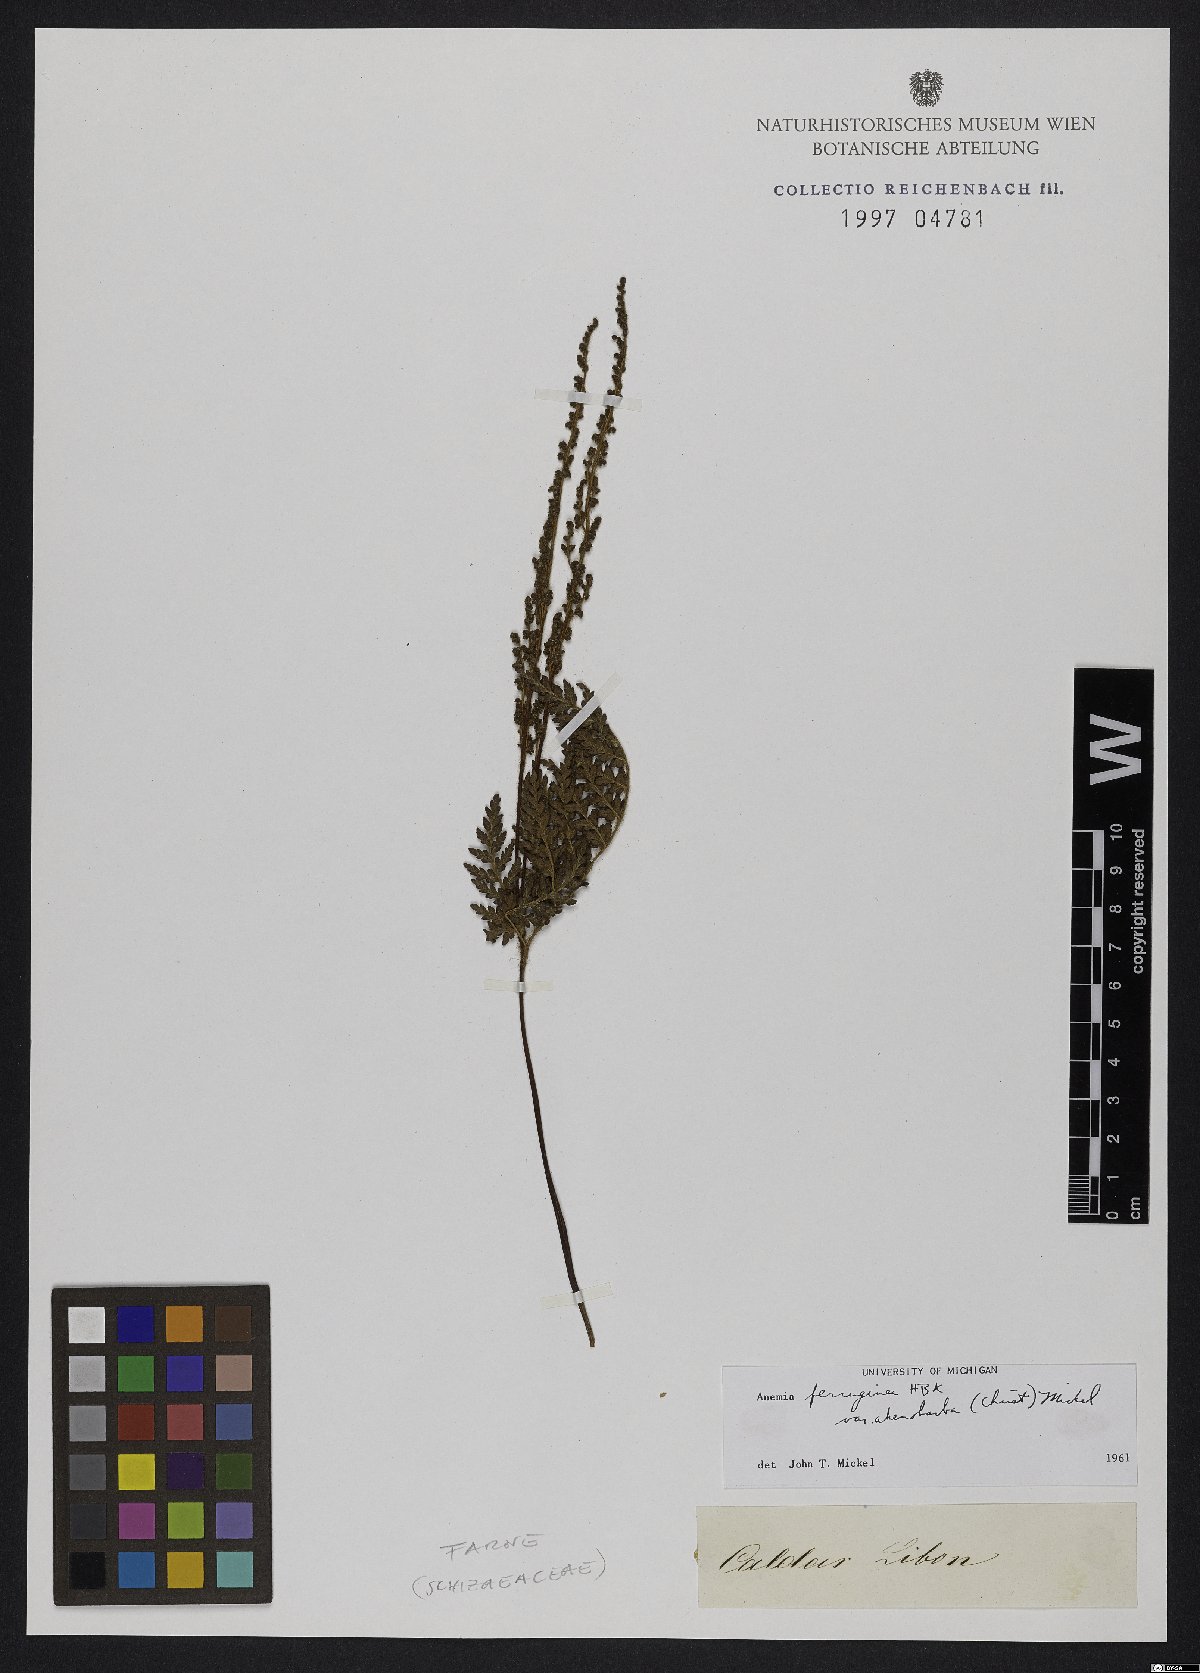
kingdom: Plantae
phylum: Tracheophyta
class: Polypodiopsida
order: Schizaeales
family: Anemiaceae
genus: Anemia
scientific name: Anemia ferruginea
